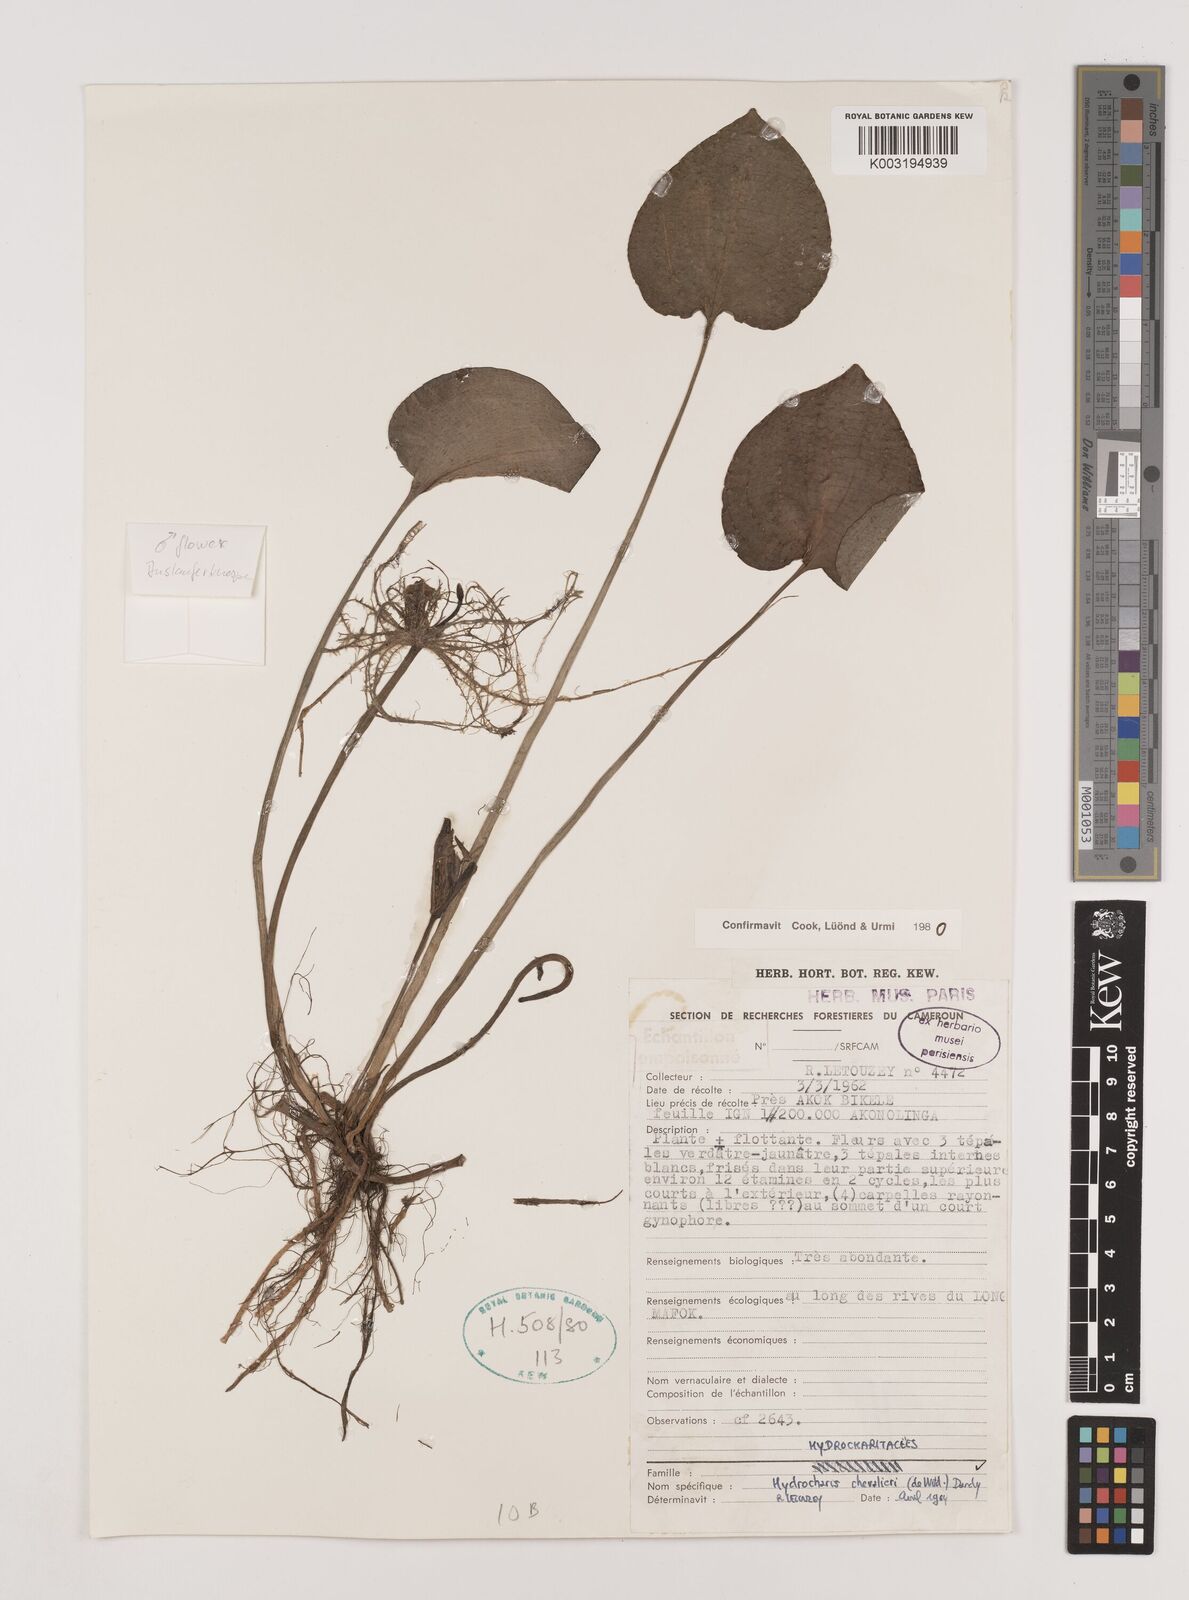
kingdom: Plantae
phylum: Tracheophyta
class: Liliopsida
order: Alismatales
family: Hydrocharitaceae
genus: Hydrocharis
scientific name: Hydrocharis chevalieri
